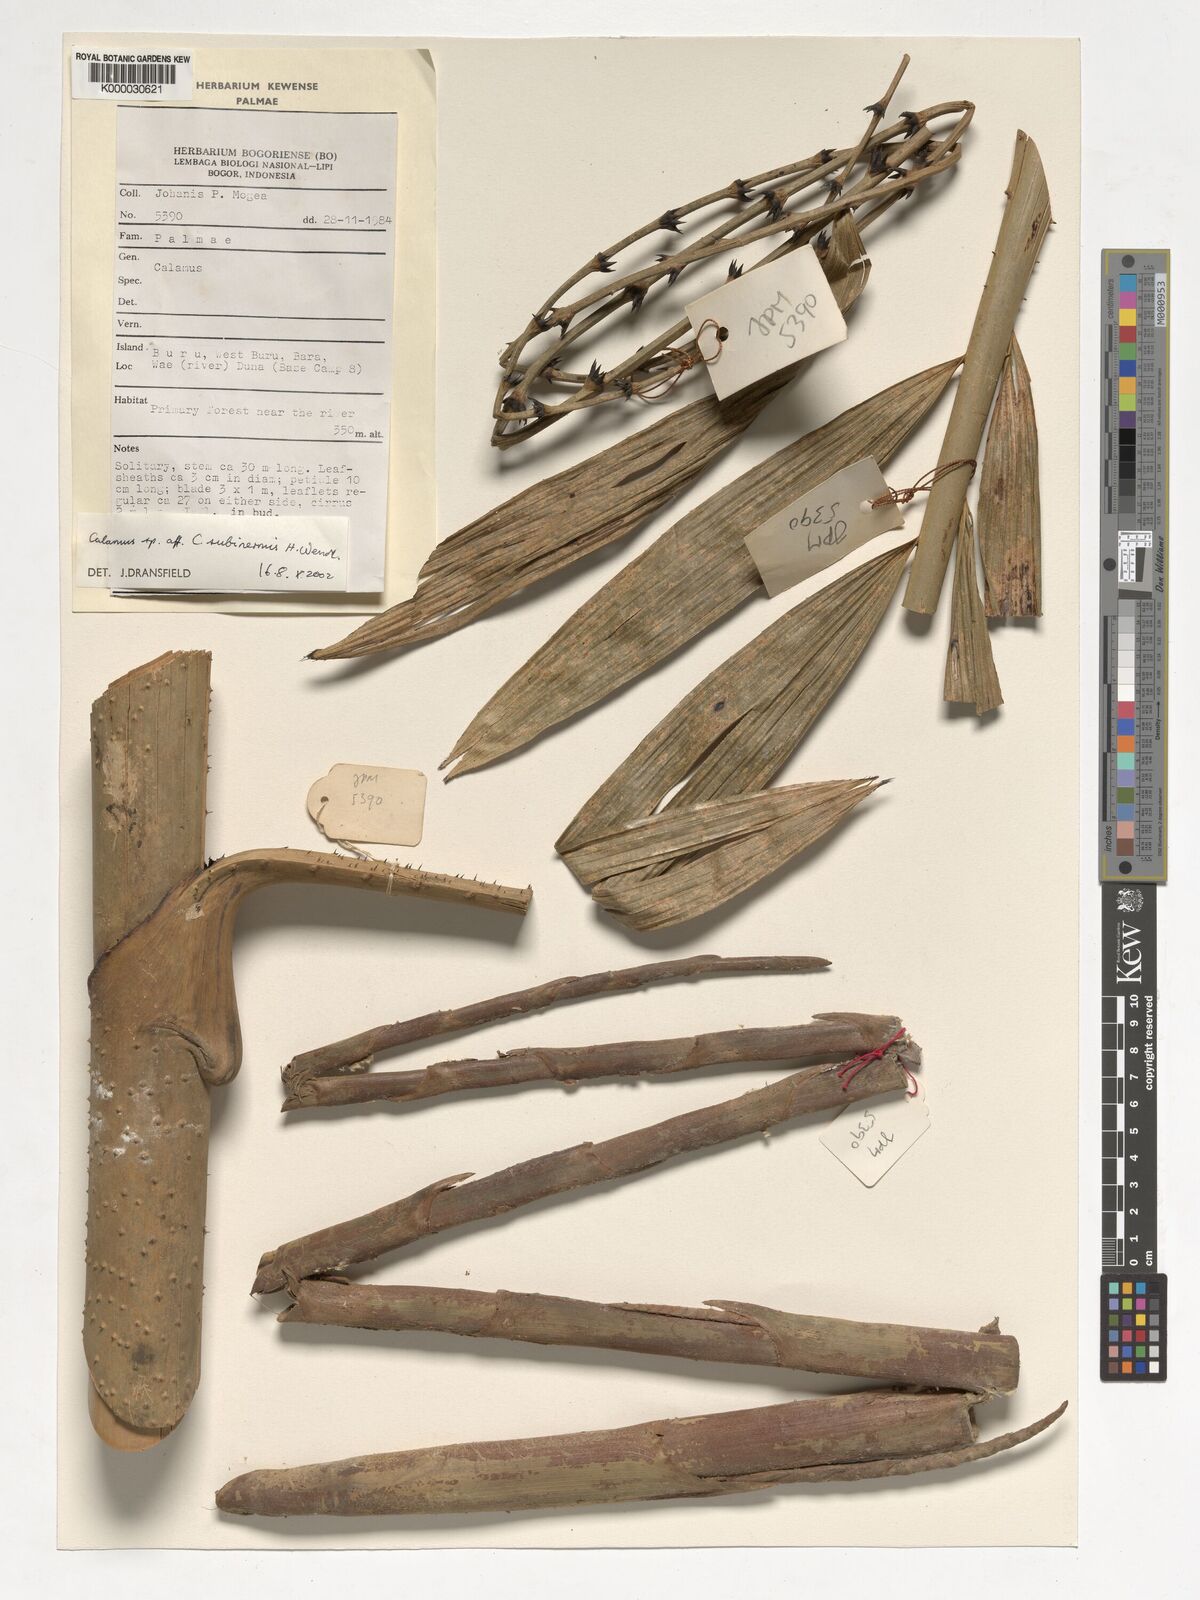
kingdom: Plantae
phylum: Tracheophyta
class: Liliopsida
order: Arecales
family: Arecaceae
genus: Calamus
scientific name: Calamus
